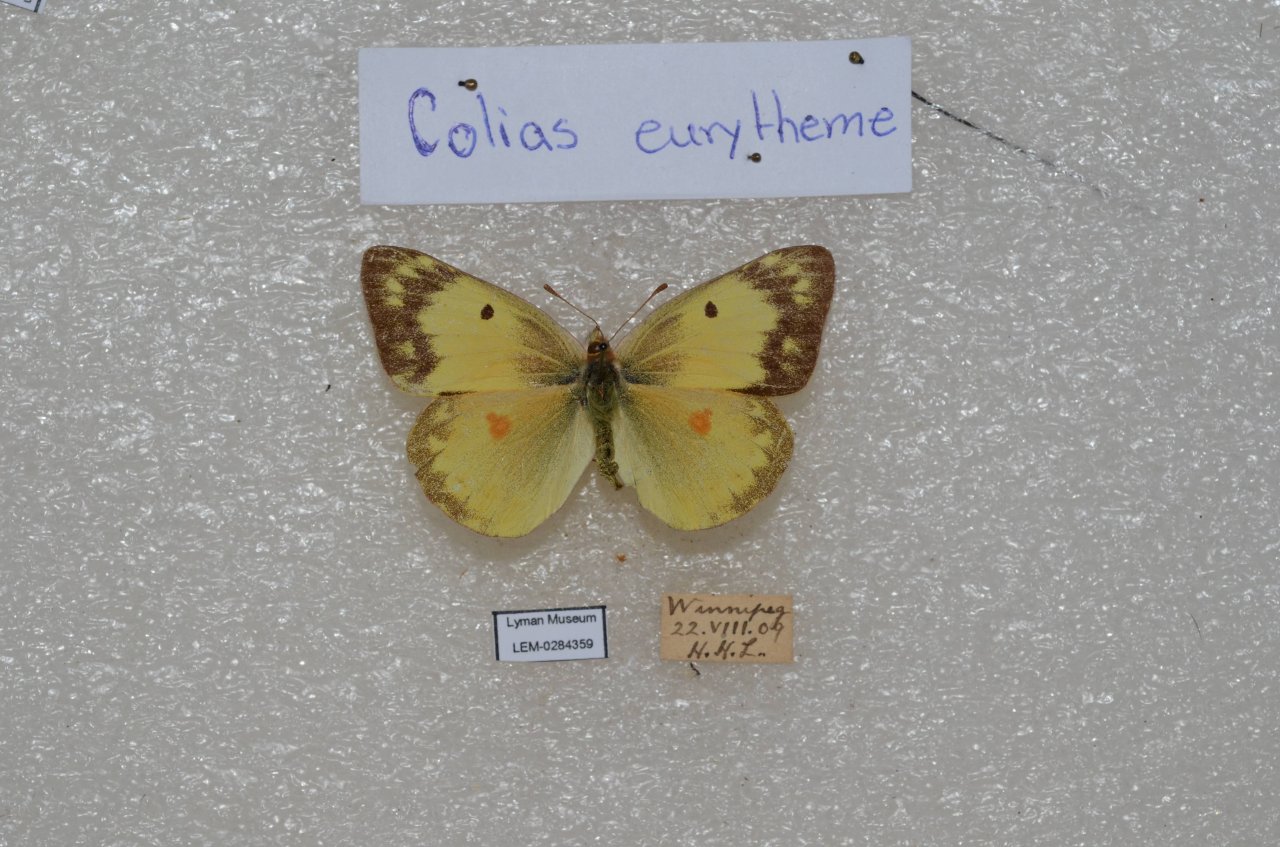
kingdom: Animalia
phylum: Arthropoda
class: Insecta
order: Lepidoptera
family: Pieridae
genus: Colias
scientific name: Colias eurytheme
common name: Orange Sulphur
